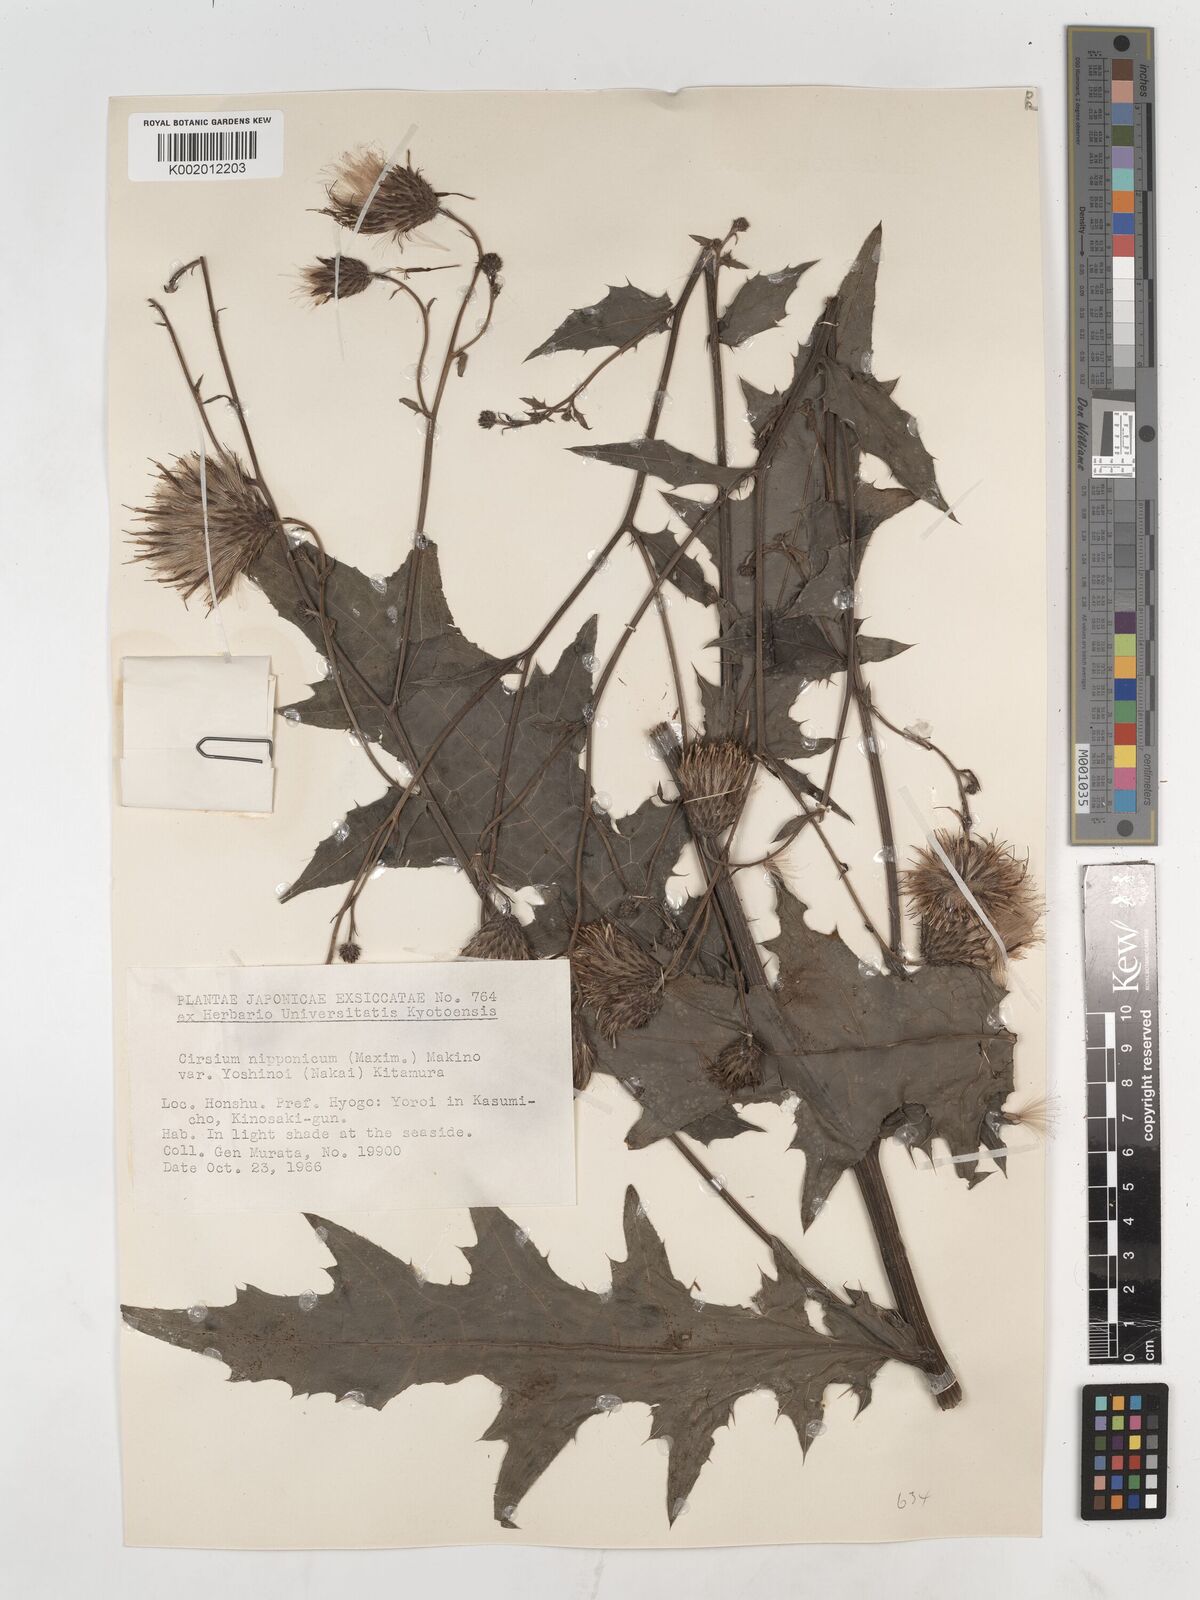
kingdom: Plantae
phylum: Tracheophyta
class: Magnoliopsida
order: Asterales
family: Asteraceae
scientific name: Asteraceae
